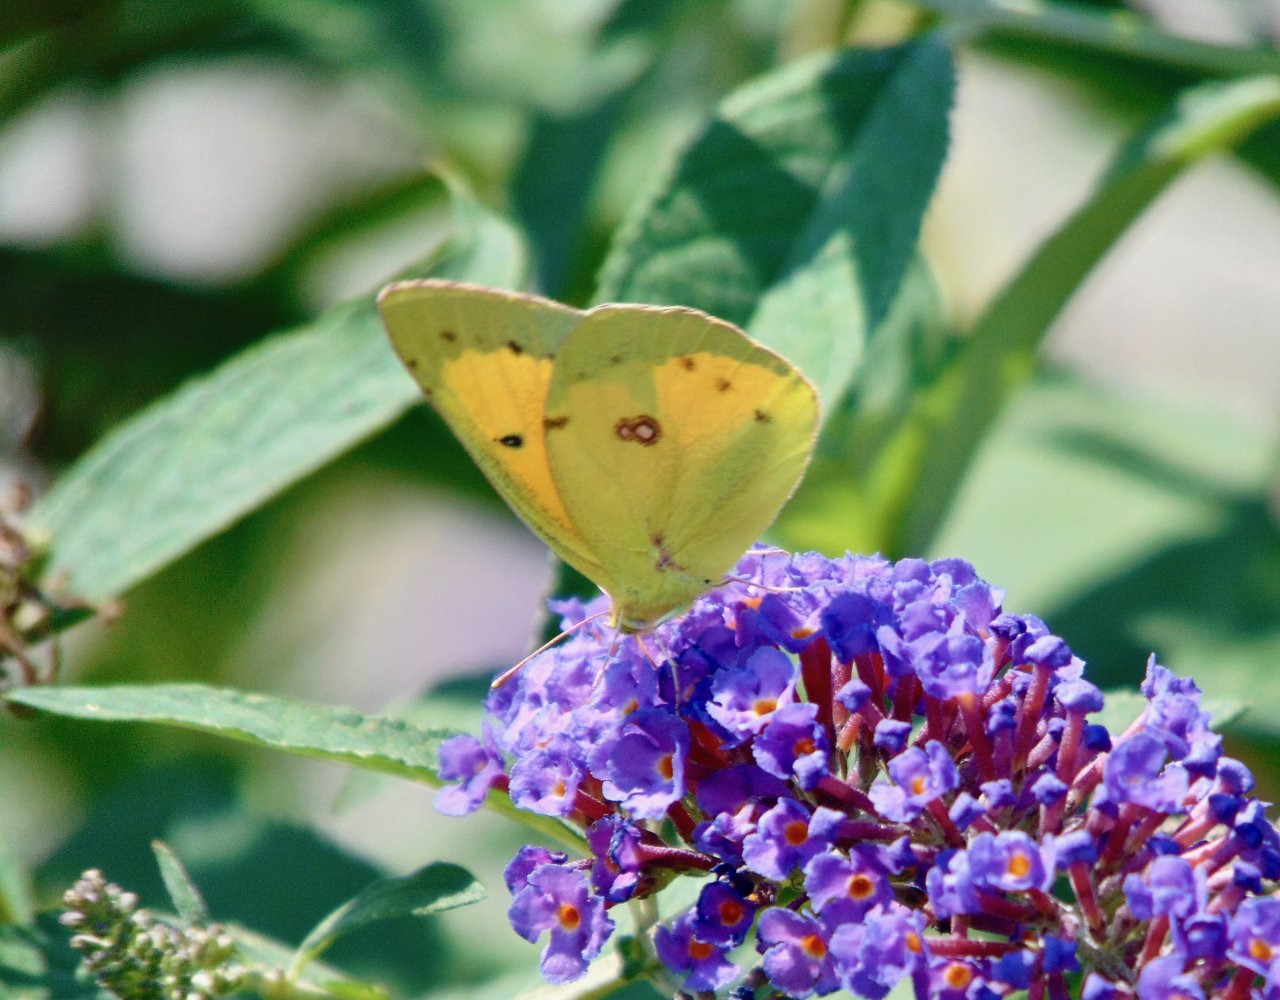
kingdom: Animalia
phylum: Arthropoda
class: Insecta
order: Lepidoptera
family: Pieridae
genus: Colias
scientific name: Colias eurytheme
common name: Orange Sulphur
